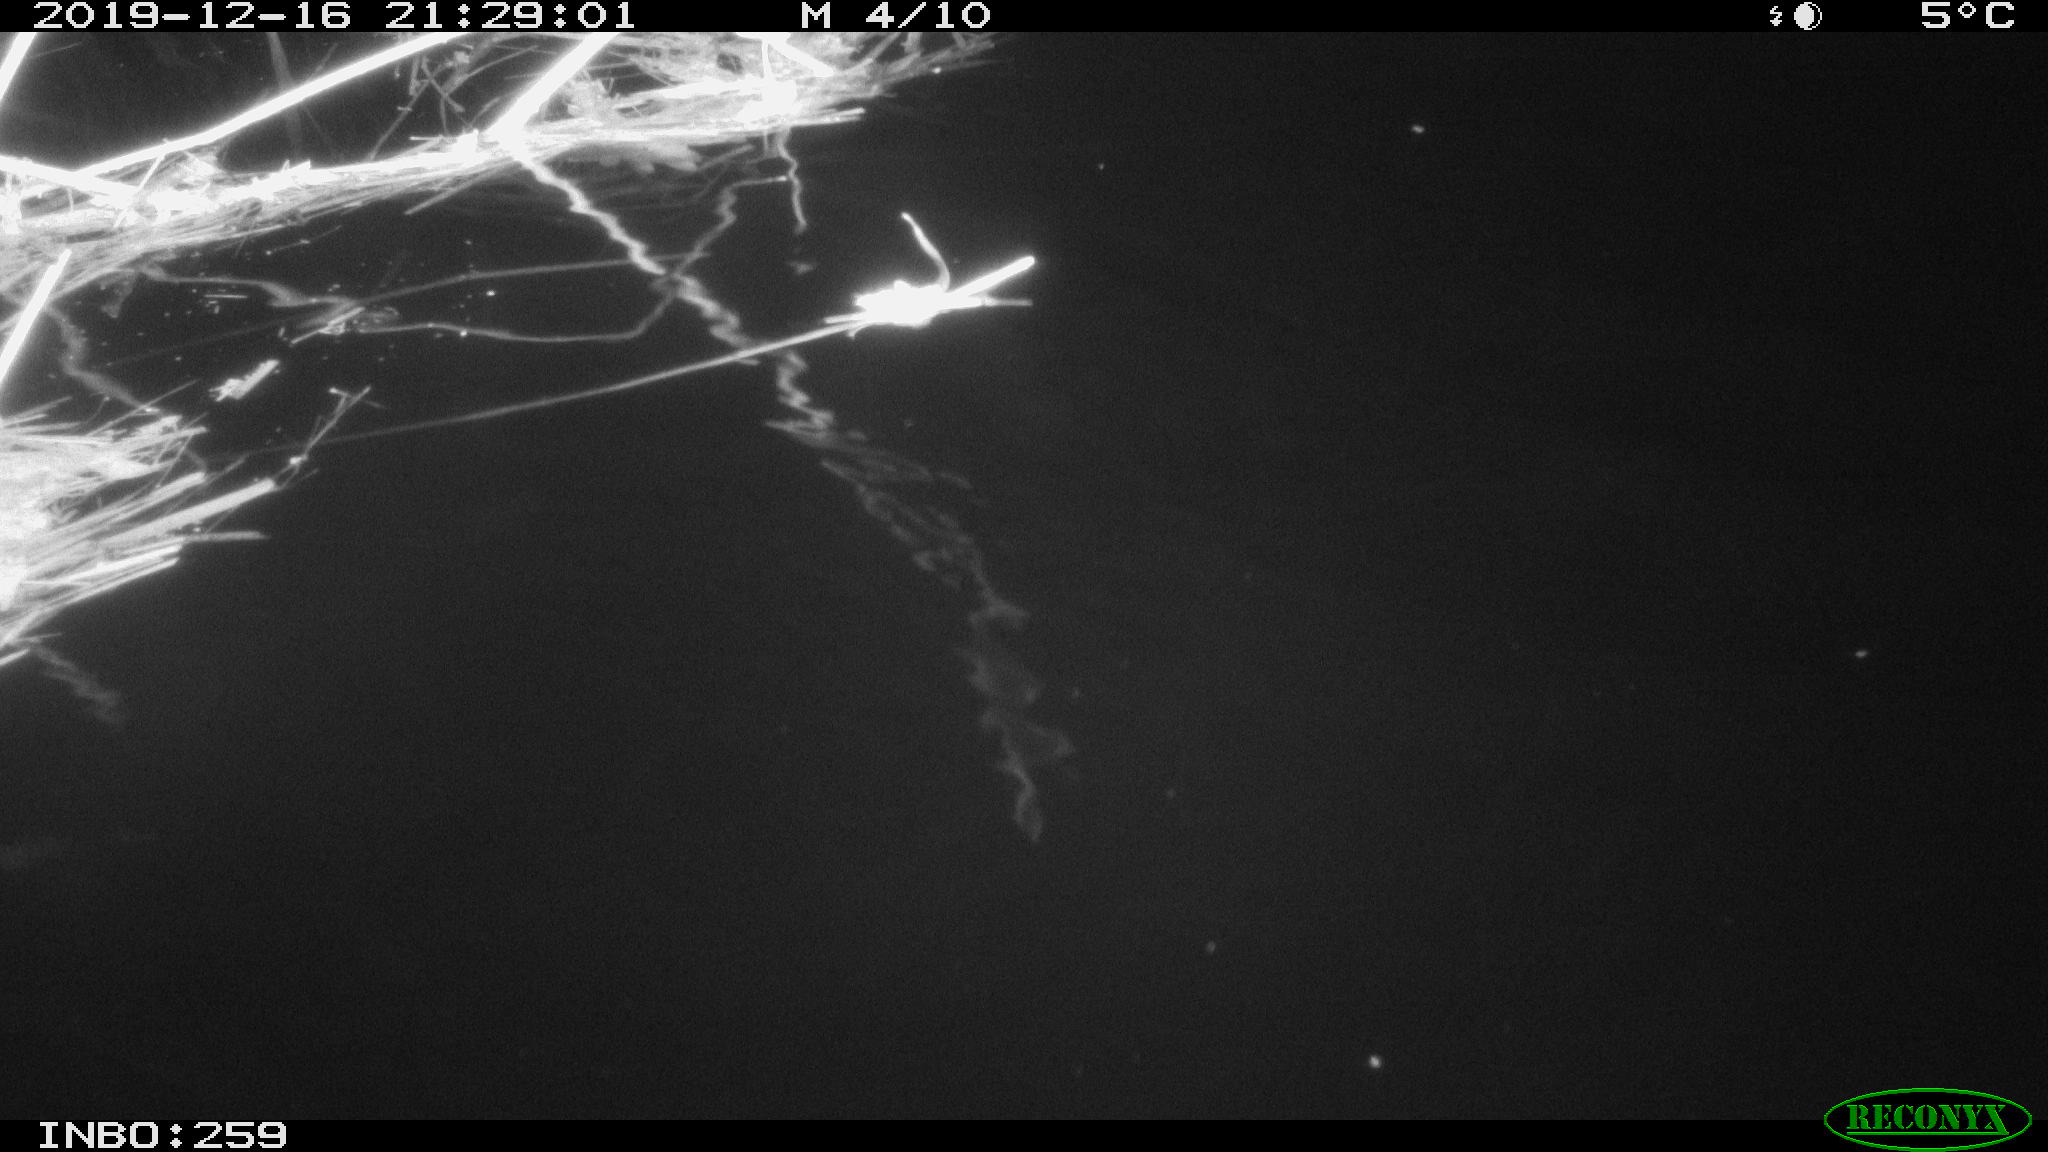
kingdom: Animalia
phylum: Chordata
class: Mammalia
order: Rodentia
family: Cricetidae
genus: Ondatra
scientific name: Ondatra zibethicus
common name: Muskrat
